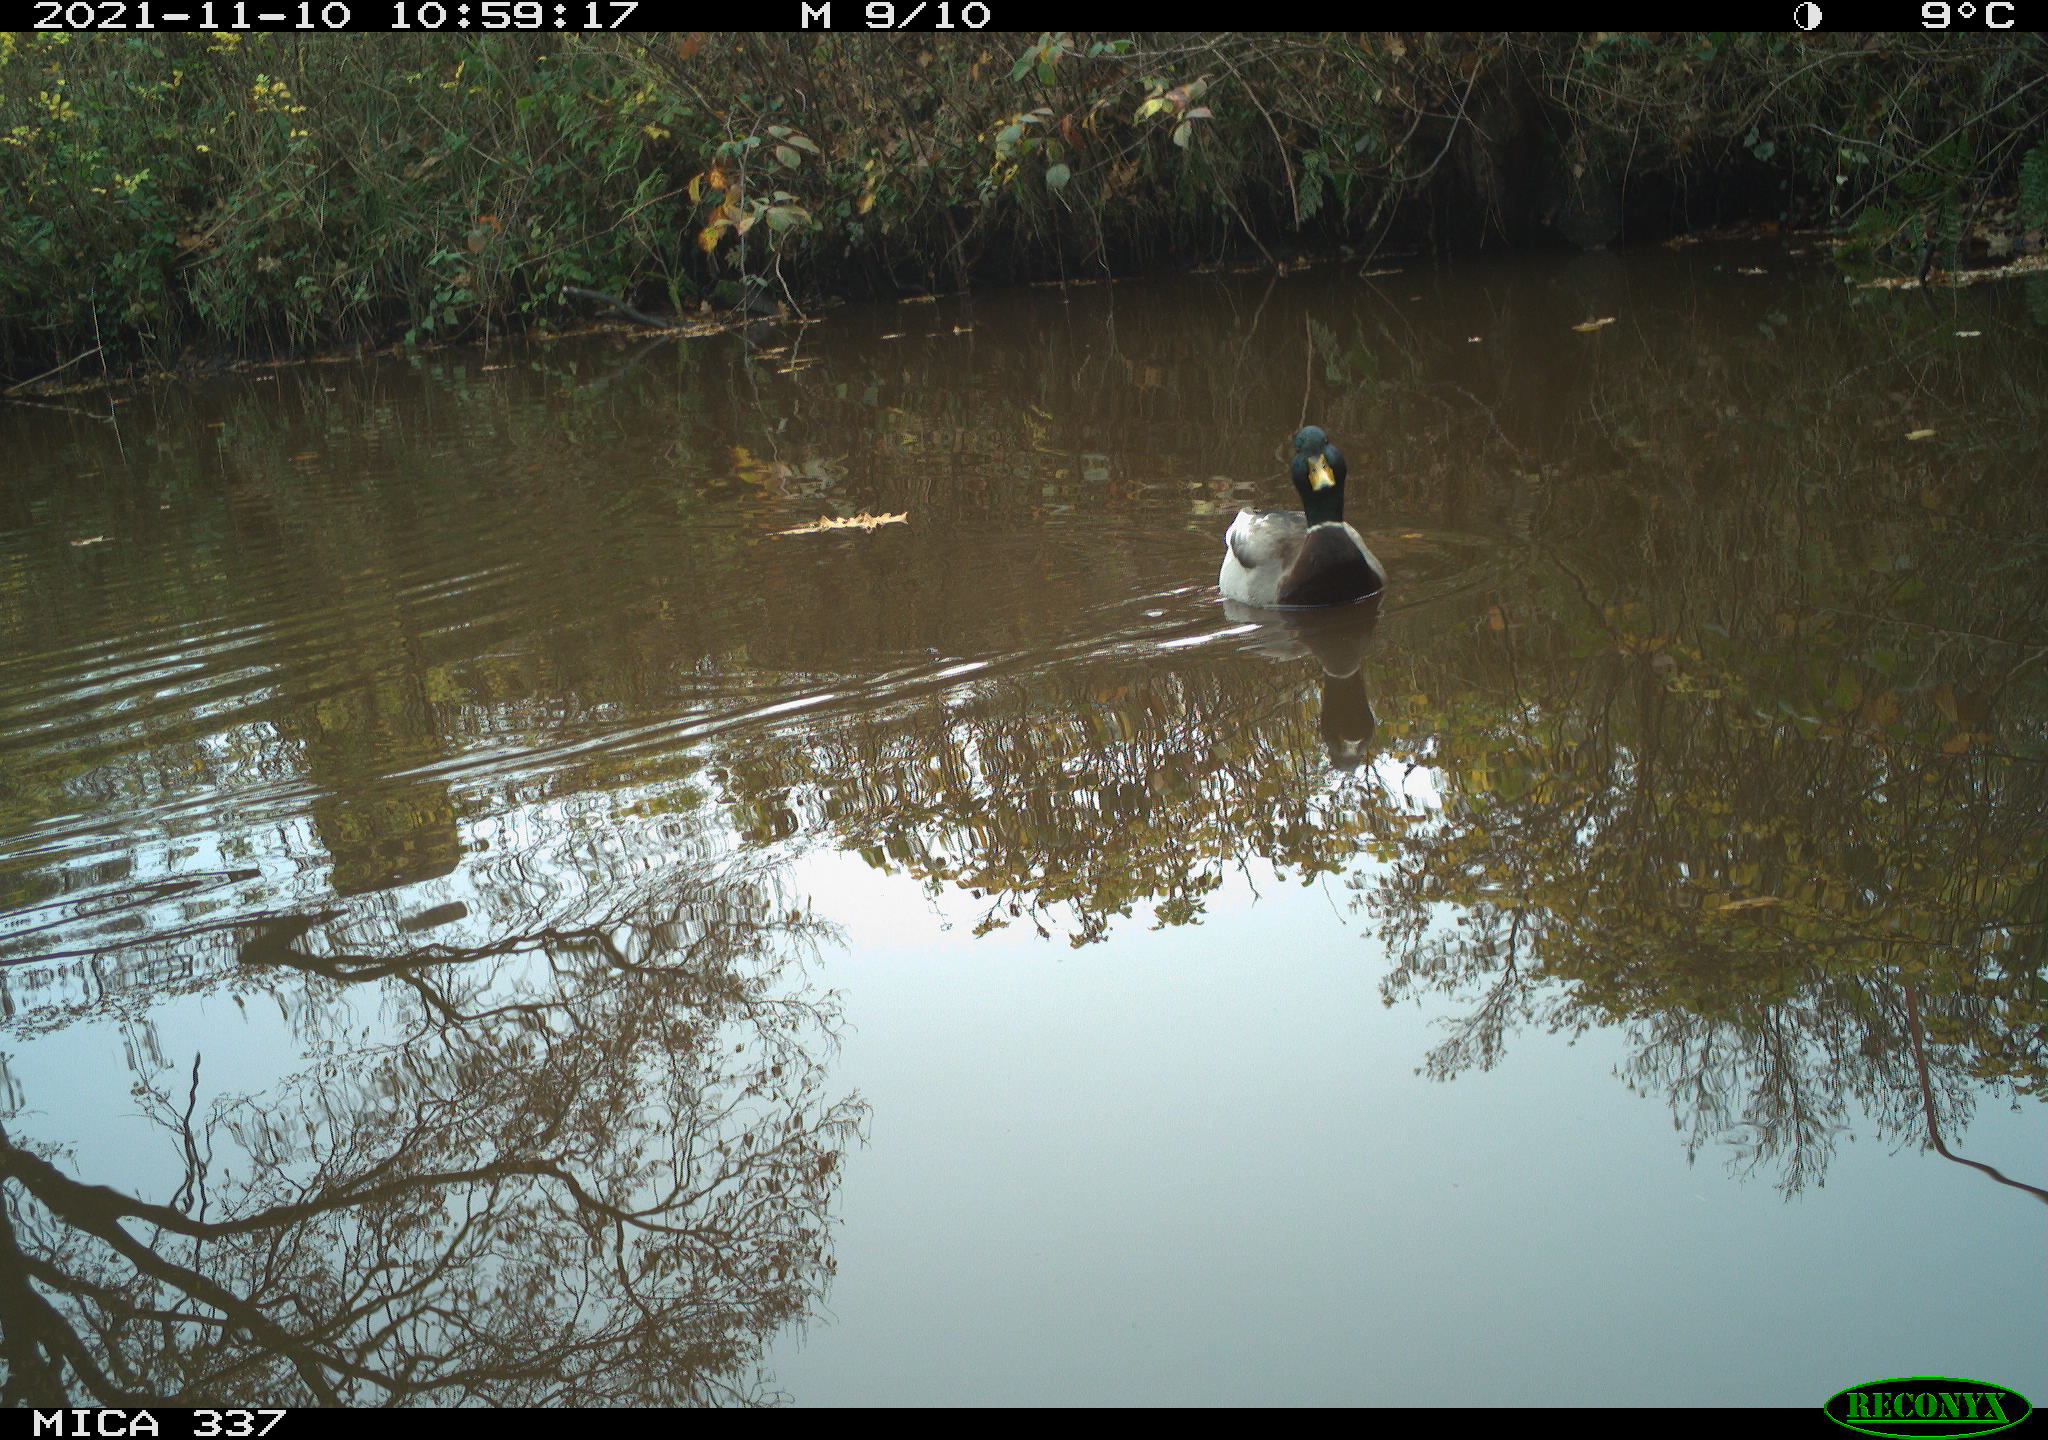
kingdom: Animalia
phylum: Chordata
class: Aves
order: Anseriformes
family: Anatidae
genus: Anas
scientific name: Anas platyrhynchos
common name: Mallard
